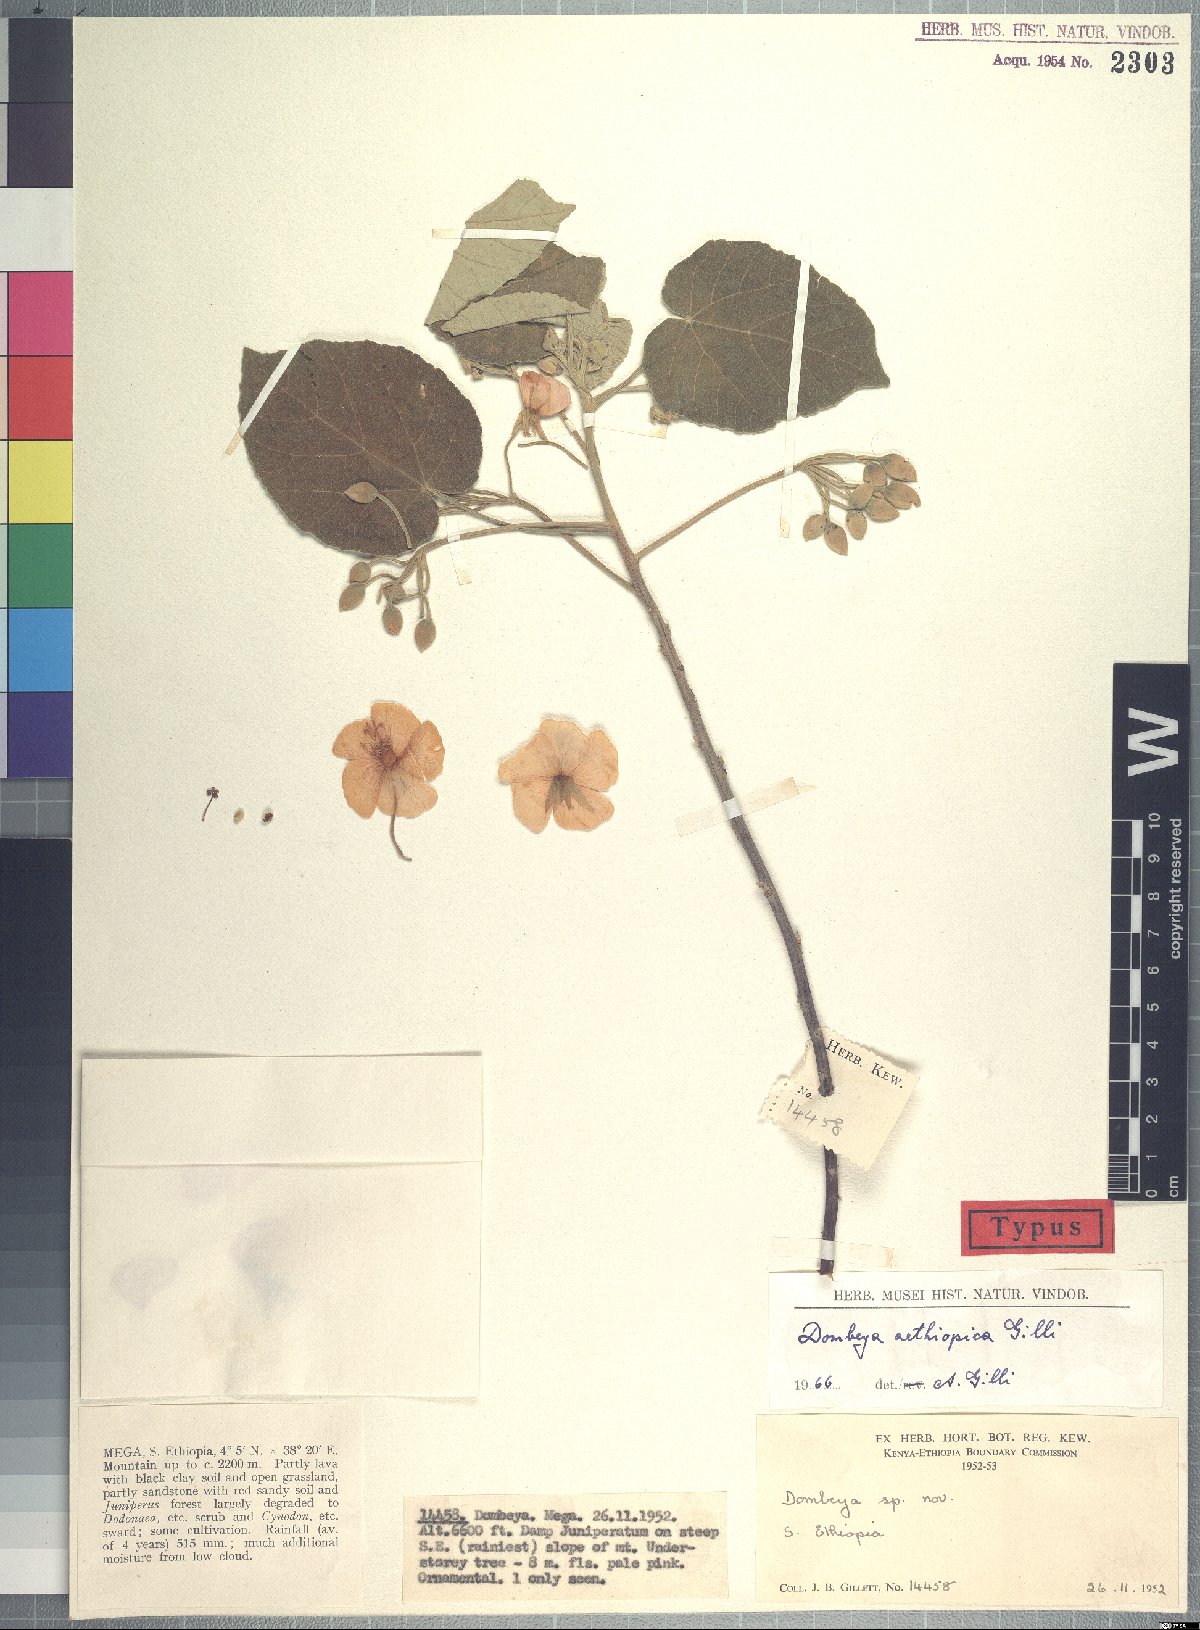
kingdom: Plantae
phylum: Tracheophyta
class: Magnoliopsida
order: Malvales
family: Malvaceae
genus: Dombeya
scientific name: Dombeya aethiopica
